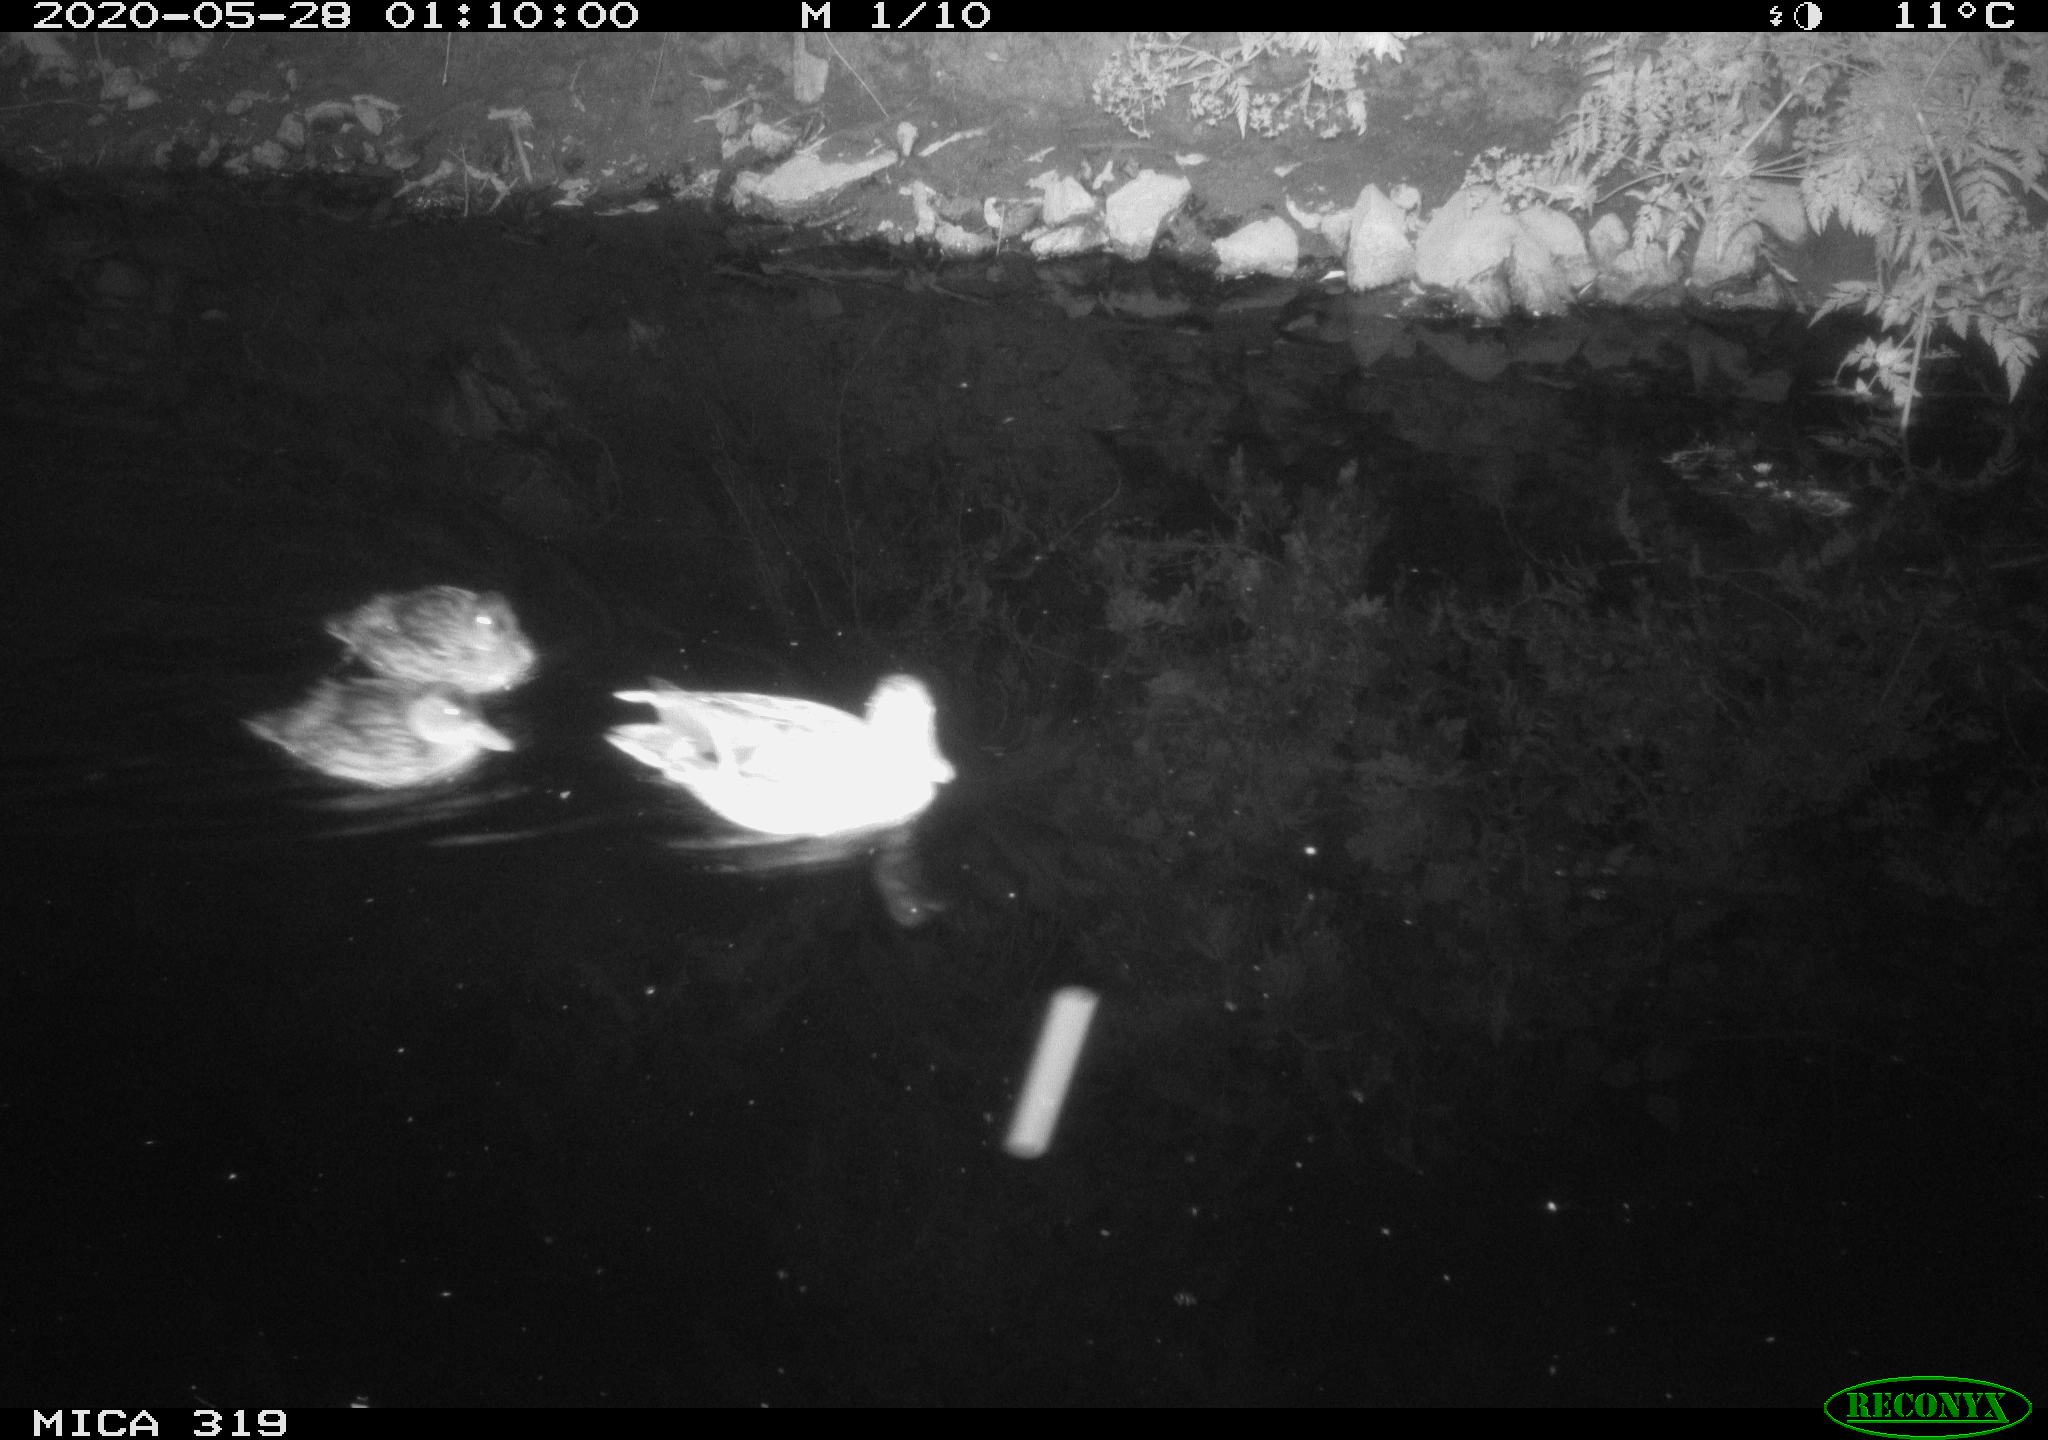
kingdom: Animalia
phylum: Chordata
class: Aves
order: Anseriformes
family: Anatidae
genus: Anas
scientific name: Anas platyrhynchos
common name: Mallard
